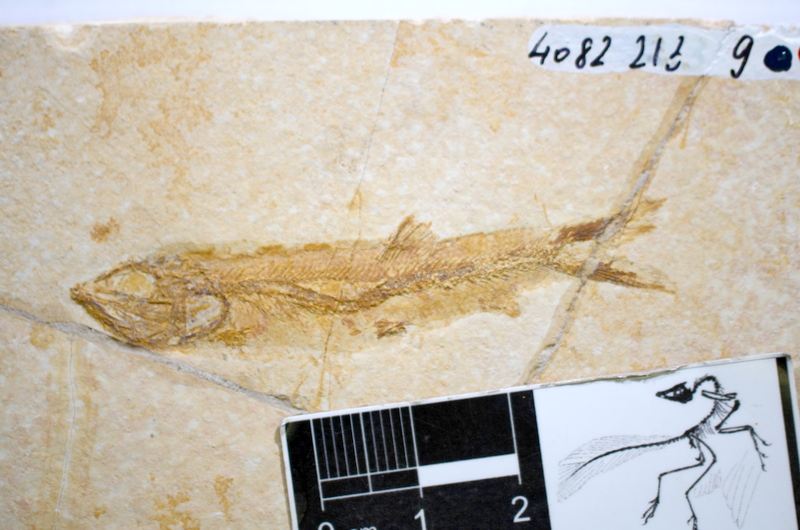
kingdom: Animalia
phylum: Chordata
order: Elopiformes
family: Anaethalionidae
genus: Anaethalion
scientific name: Anaethalion
